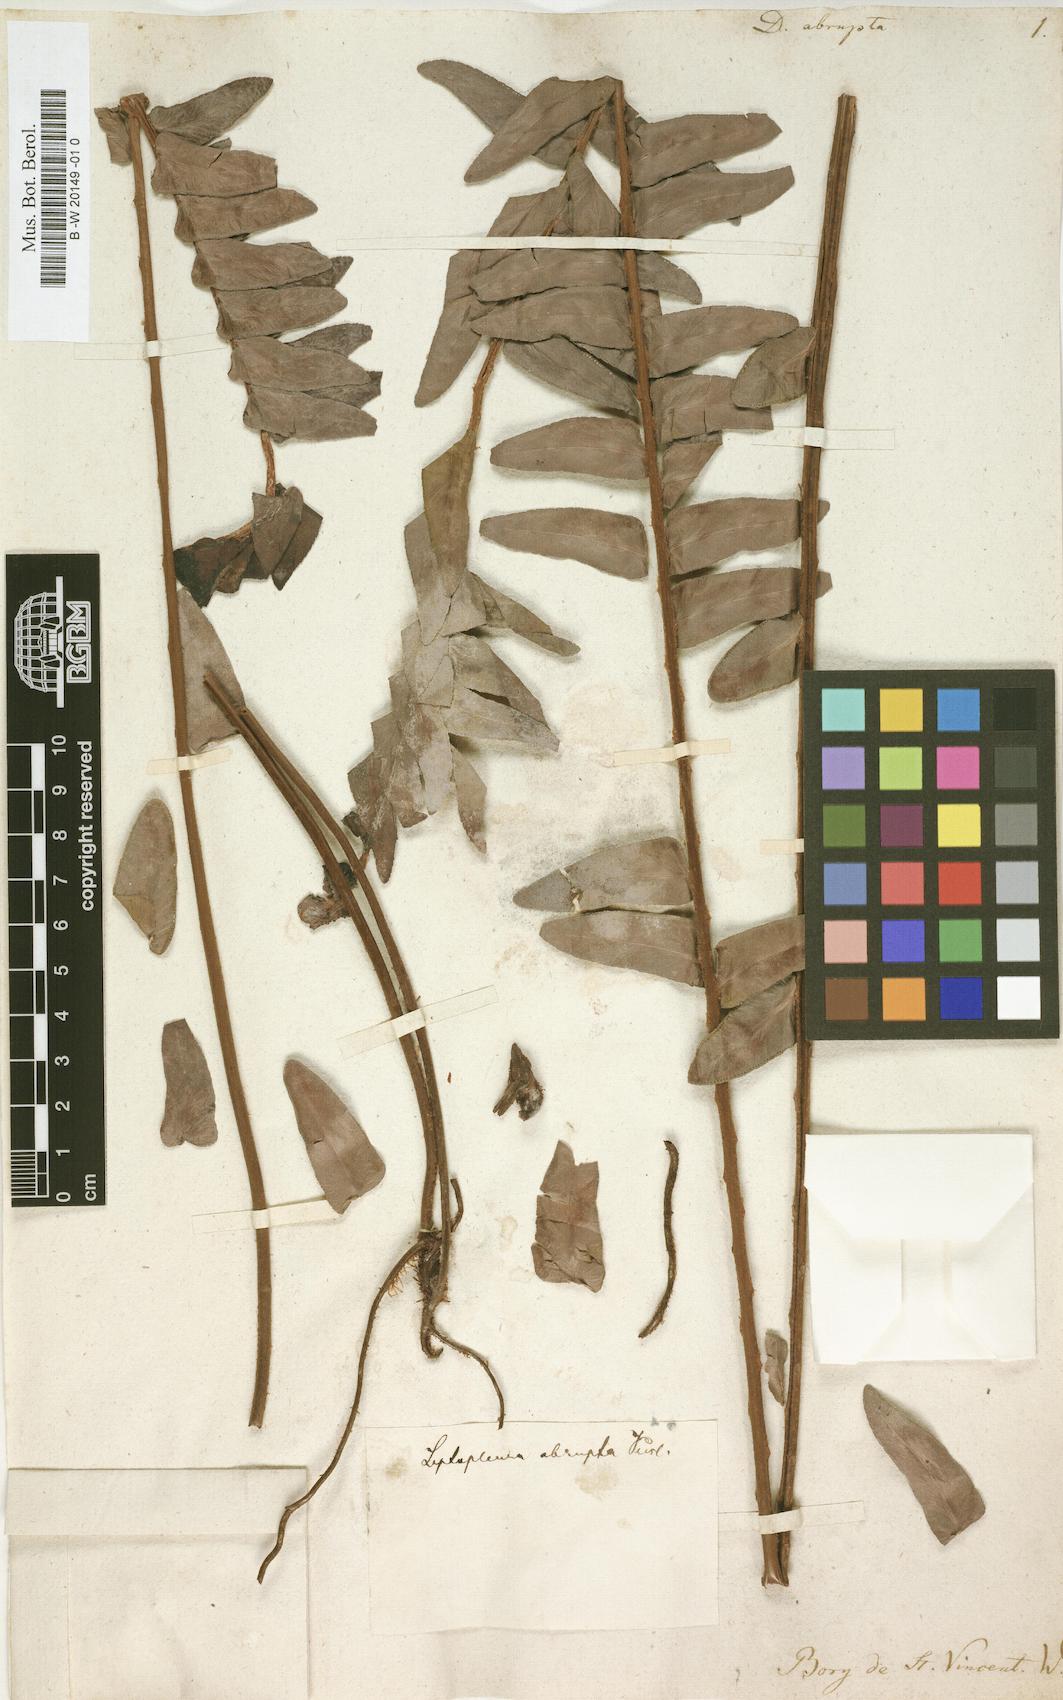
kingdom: Plantae
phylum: Tracheophyta
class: Polypodiopsida
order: Polypodiales
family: Nephrolepidaceae
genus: Nephrolepis
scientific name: Nephrolepis abrupta
